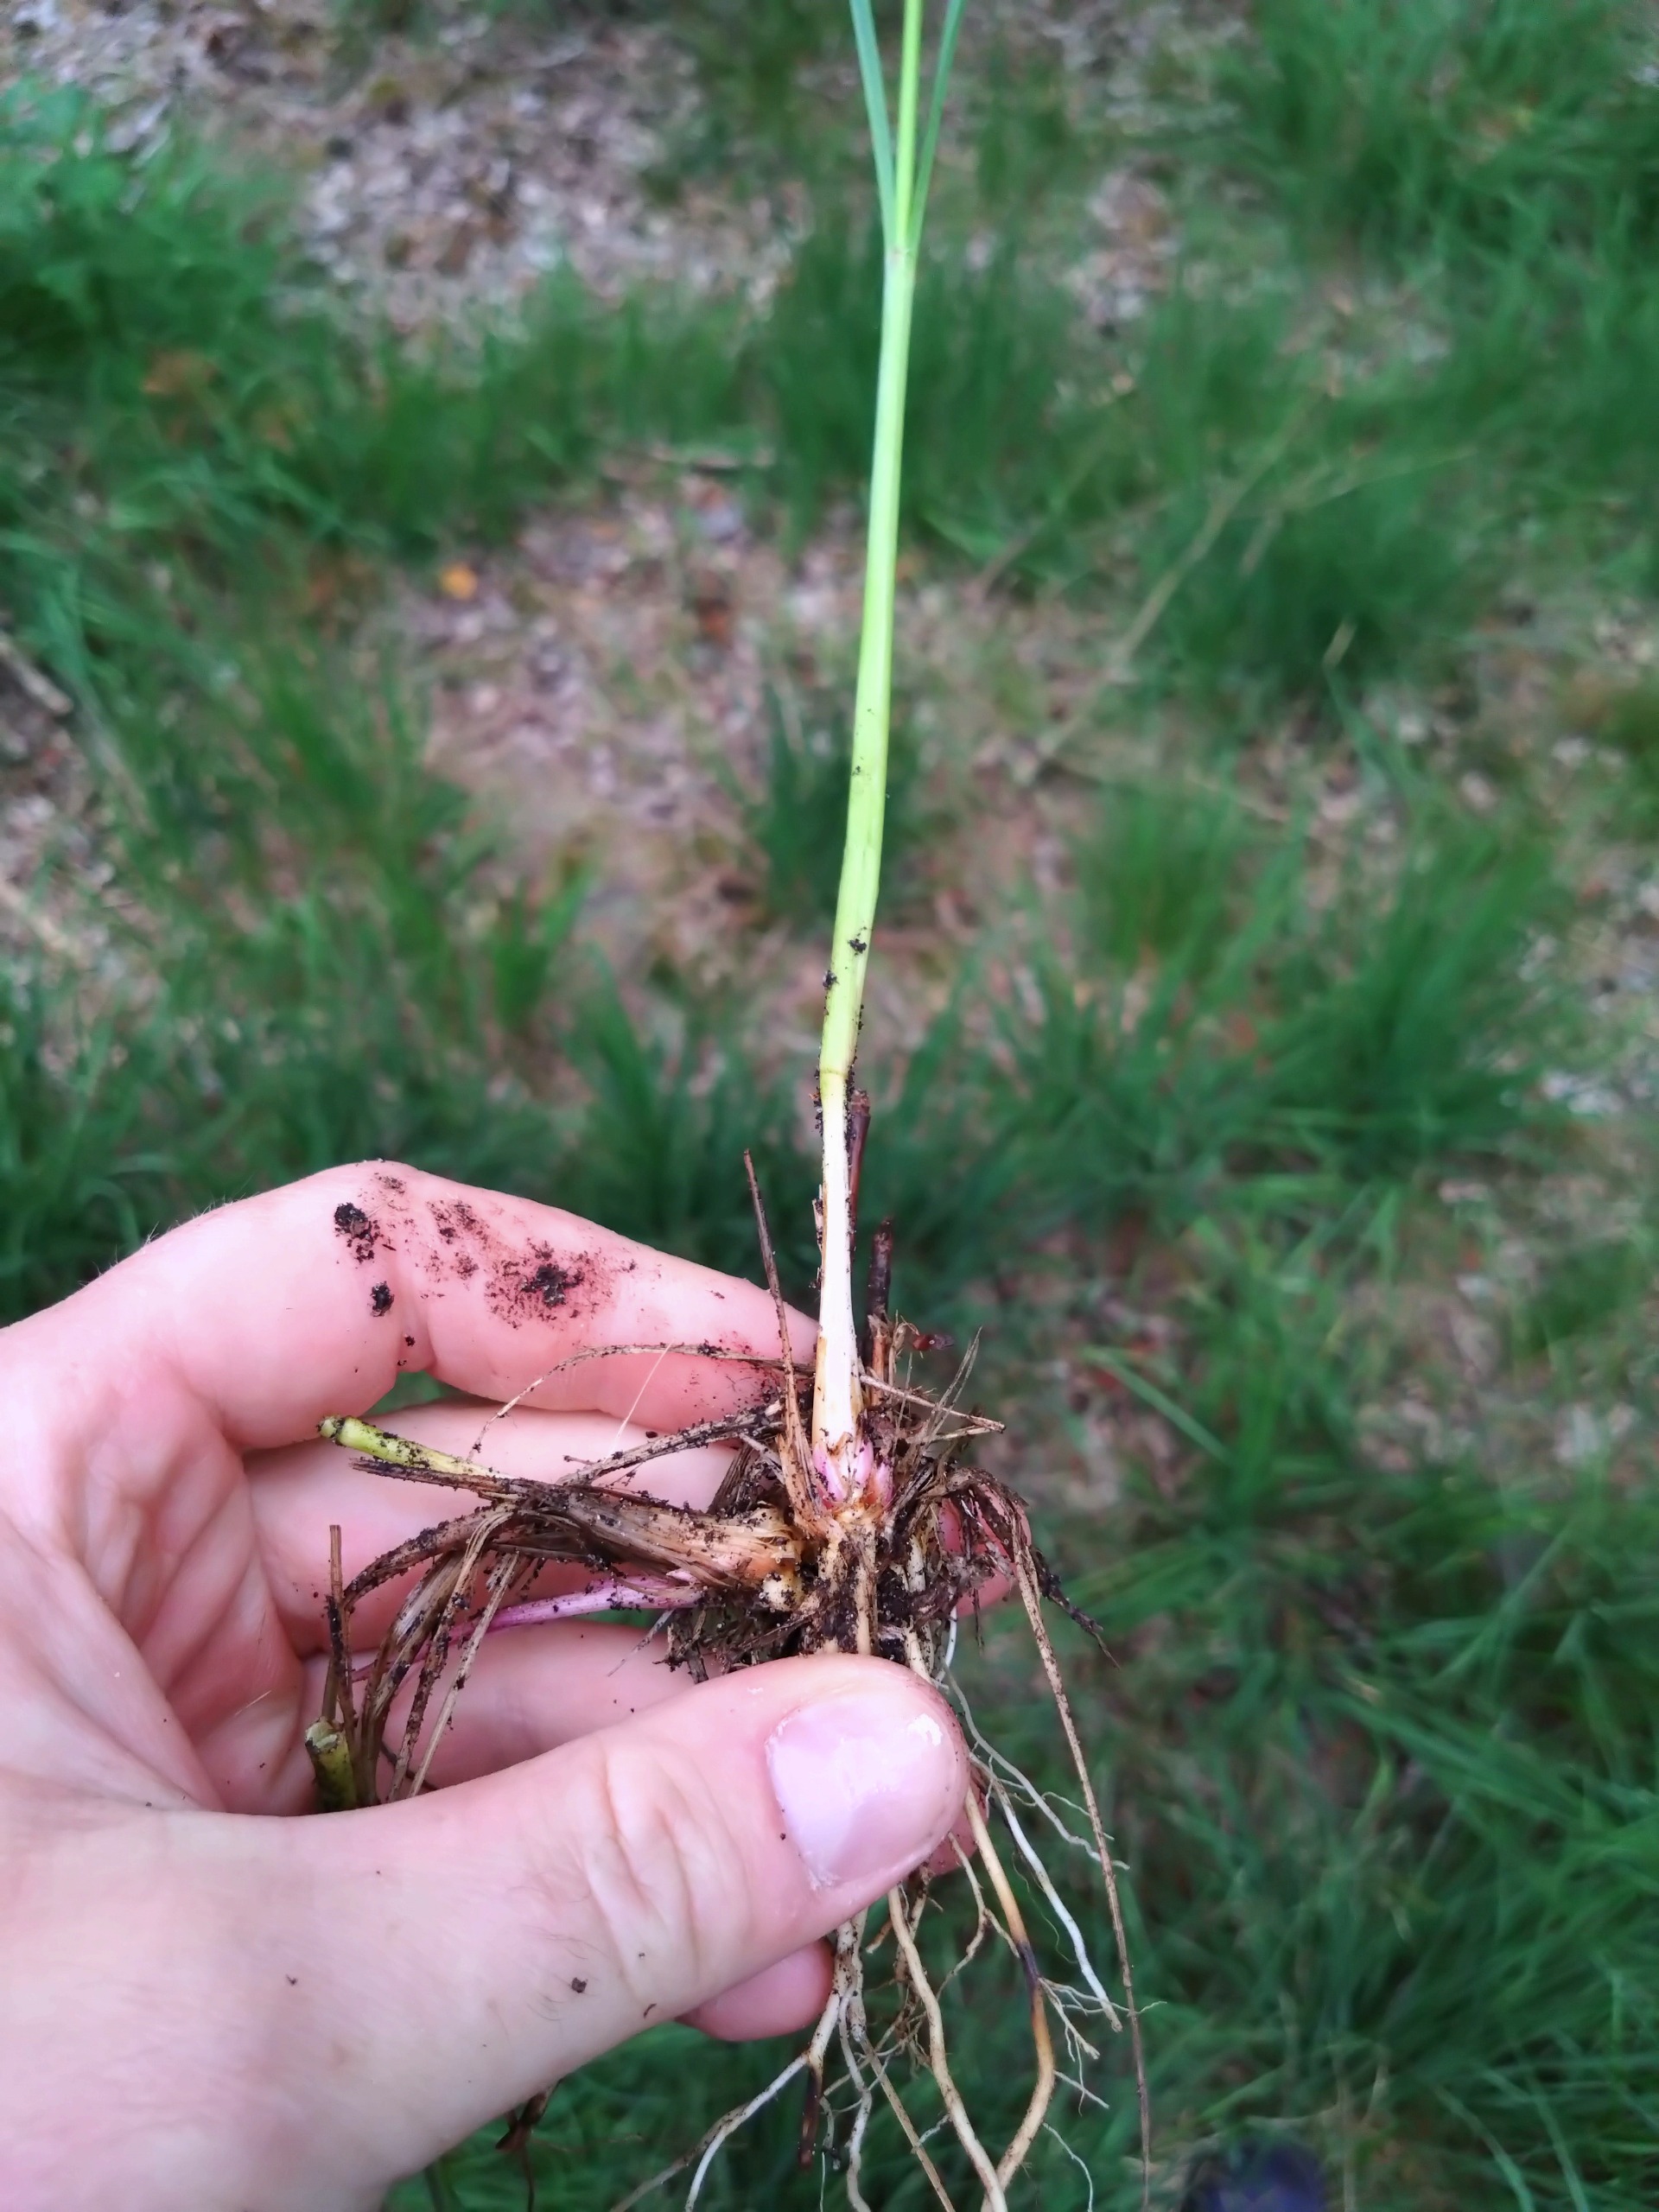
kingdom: Plantae
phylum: Tracheophyta
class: Liliopsida
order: Poales
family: Poaceae
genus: Molinia
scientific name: Molinia caerulea
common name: Blåtop
